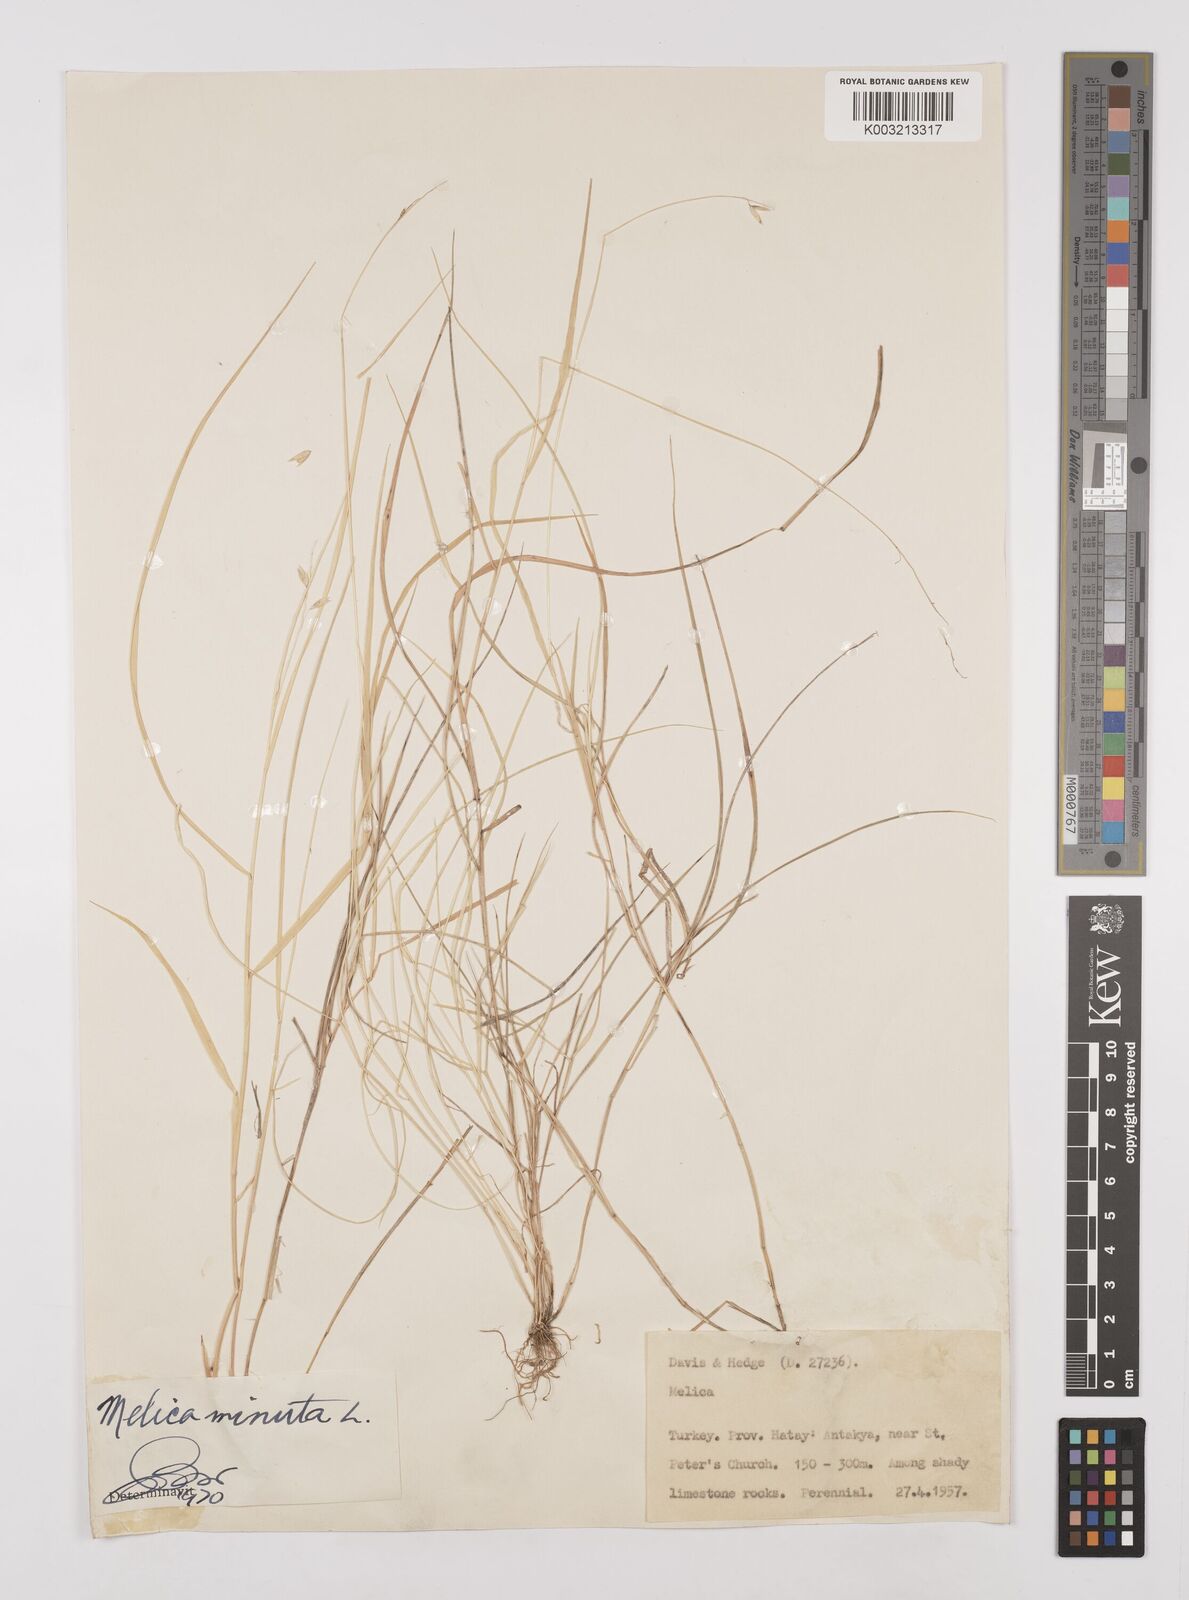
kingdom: Plantae
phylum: Tracheophyta
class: Liliopsida
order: Poales
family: Poaceae
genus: Melica
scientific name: Melica minuta
